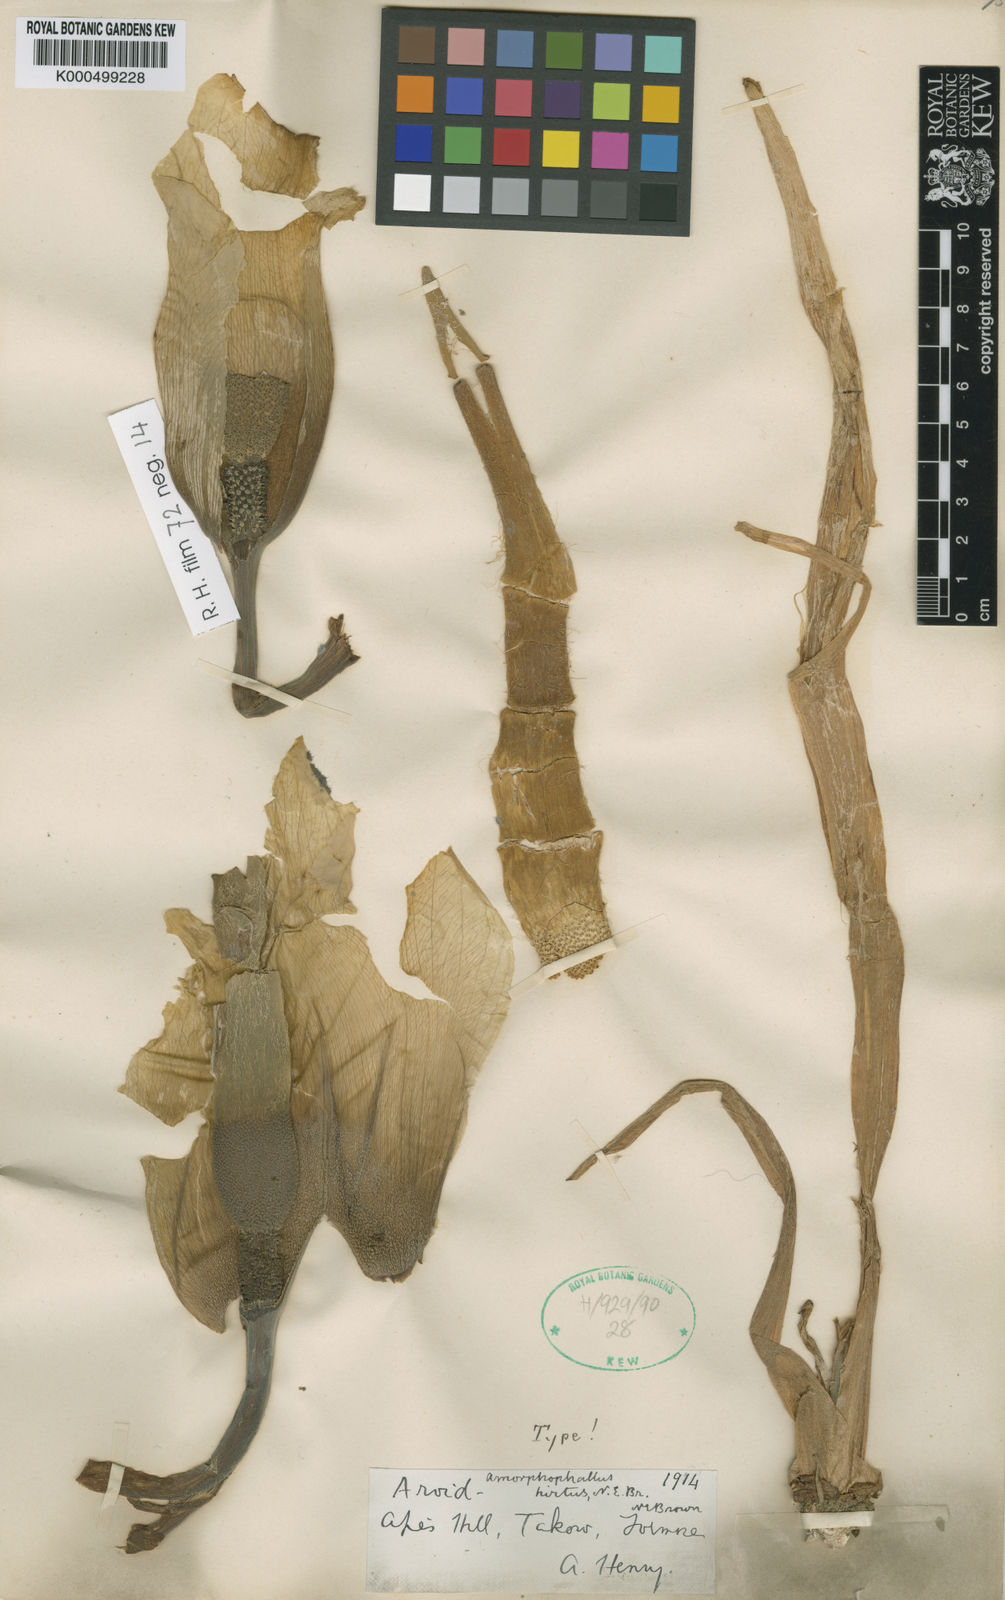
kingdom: Plantae
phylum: Tracheophyta
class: Liliopsida
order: Alismatales
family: Araceae
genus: Amorphophallus
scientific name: Amorphophallus hirtus
